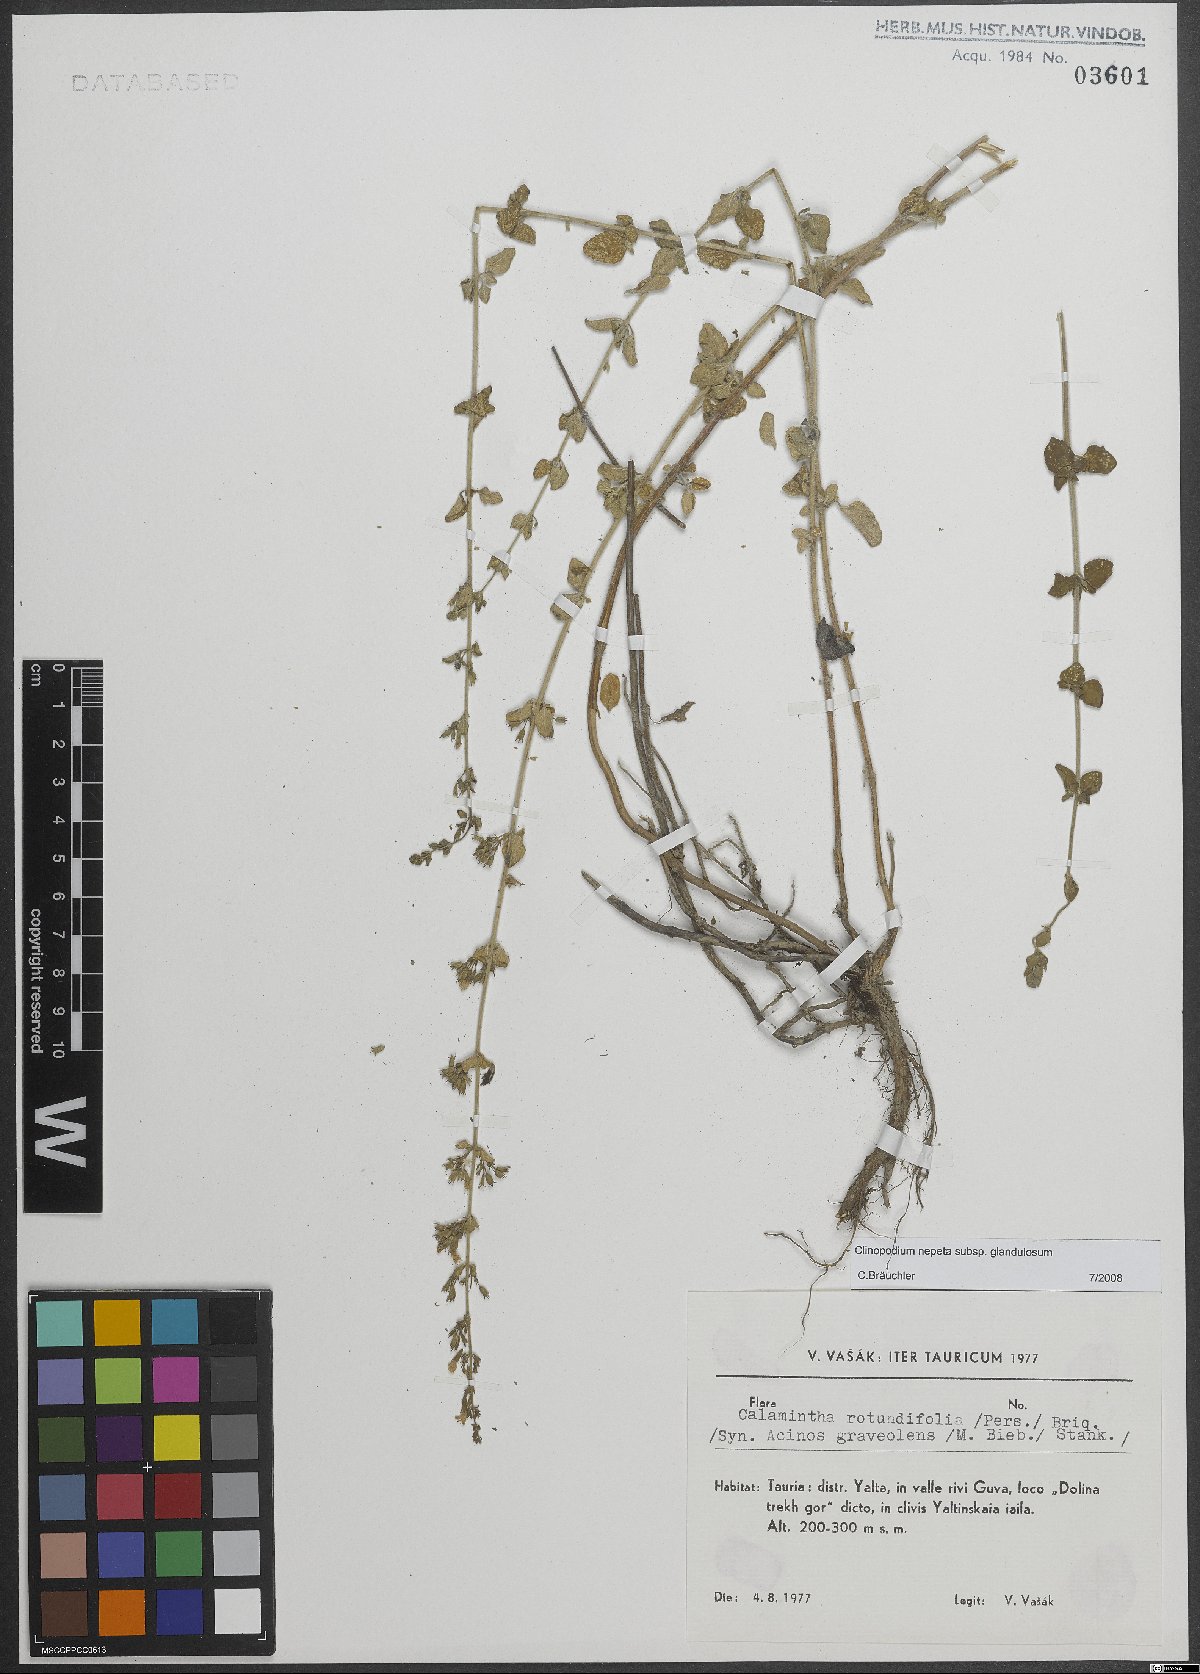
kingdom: Plantae
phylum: Tracheophyta
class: Magnoliopsida
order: Lamiales
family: Lamiaceae
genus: Clinopodium
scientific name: Clinopodium nepeta
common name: Lesser calamint
